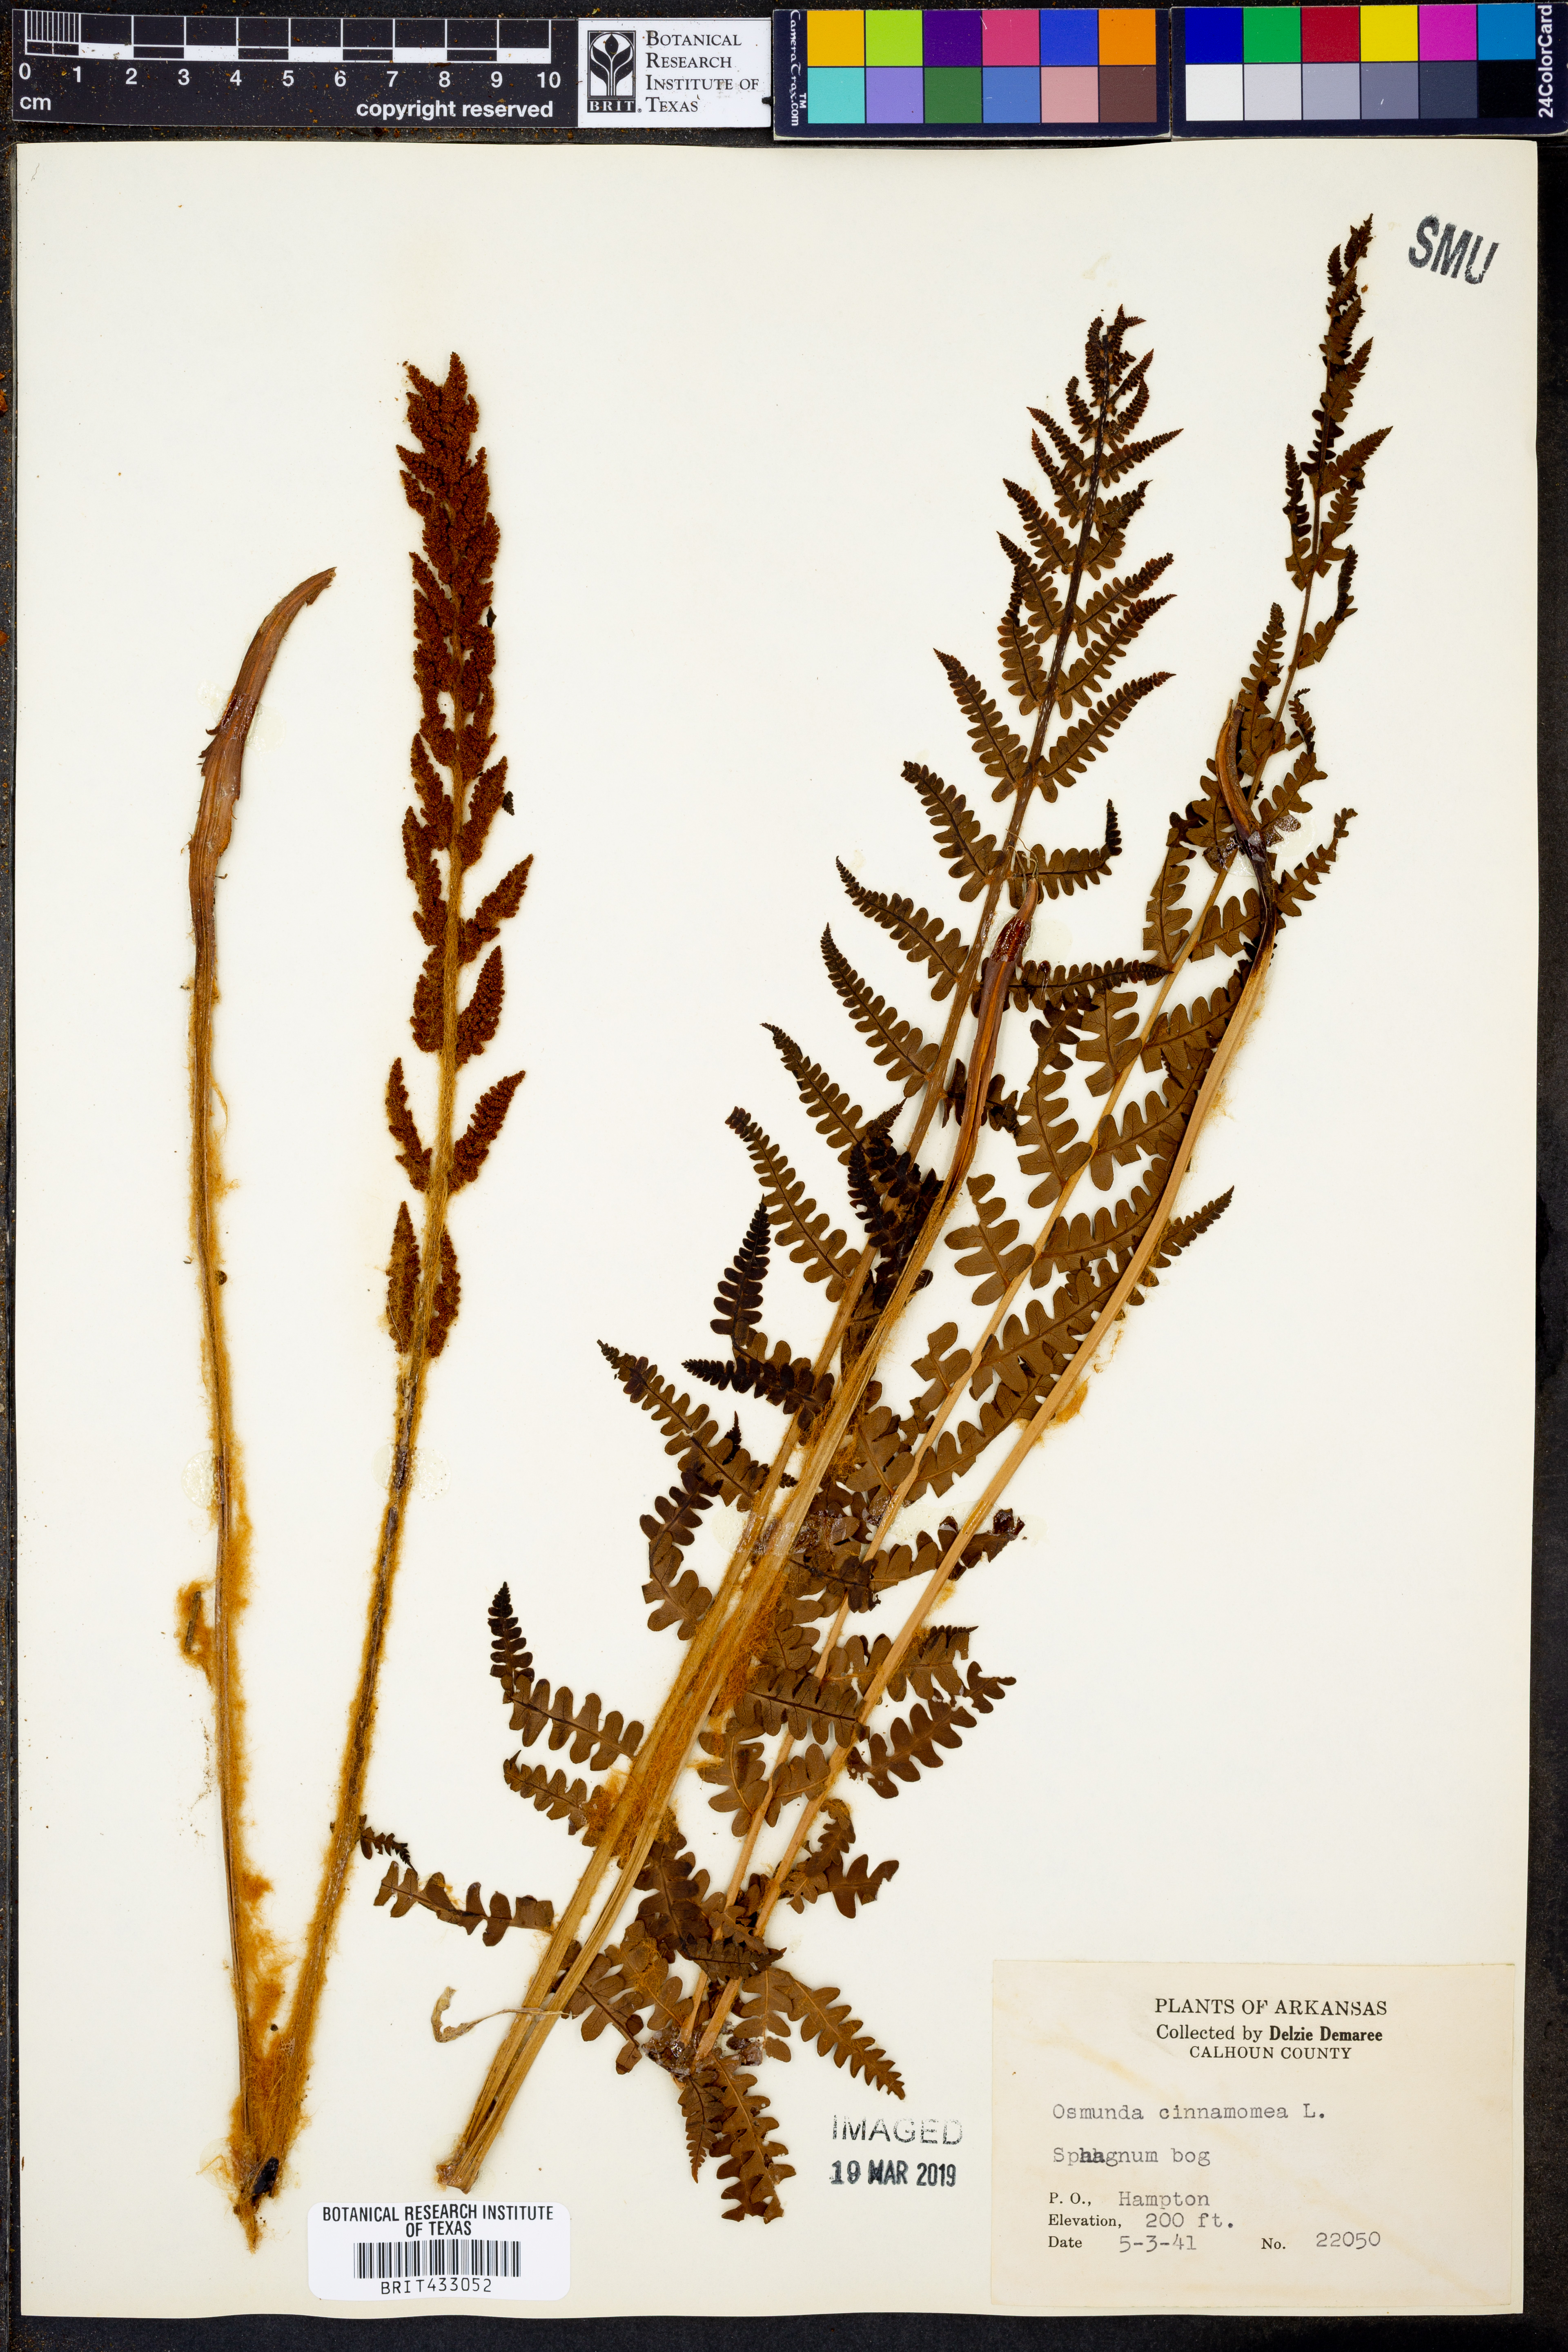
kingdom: Plantae
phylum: Tracheophyta
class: Polypodiopsida
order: Osmundales
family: Osmundaceae
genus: Osmundastrum
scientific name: Osmundastrum cinnamomeum
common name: Cinnamon fern
